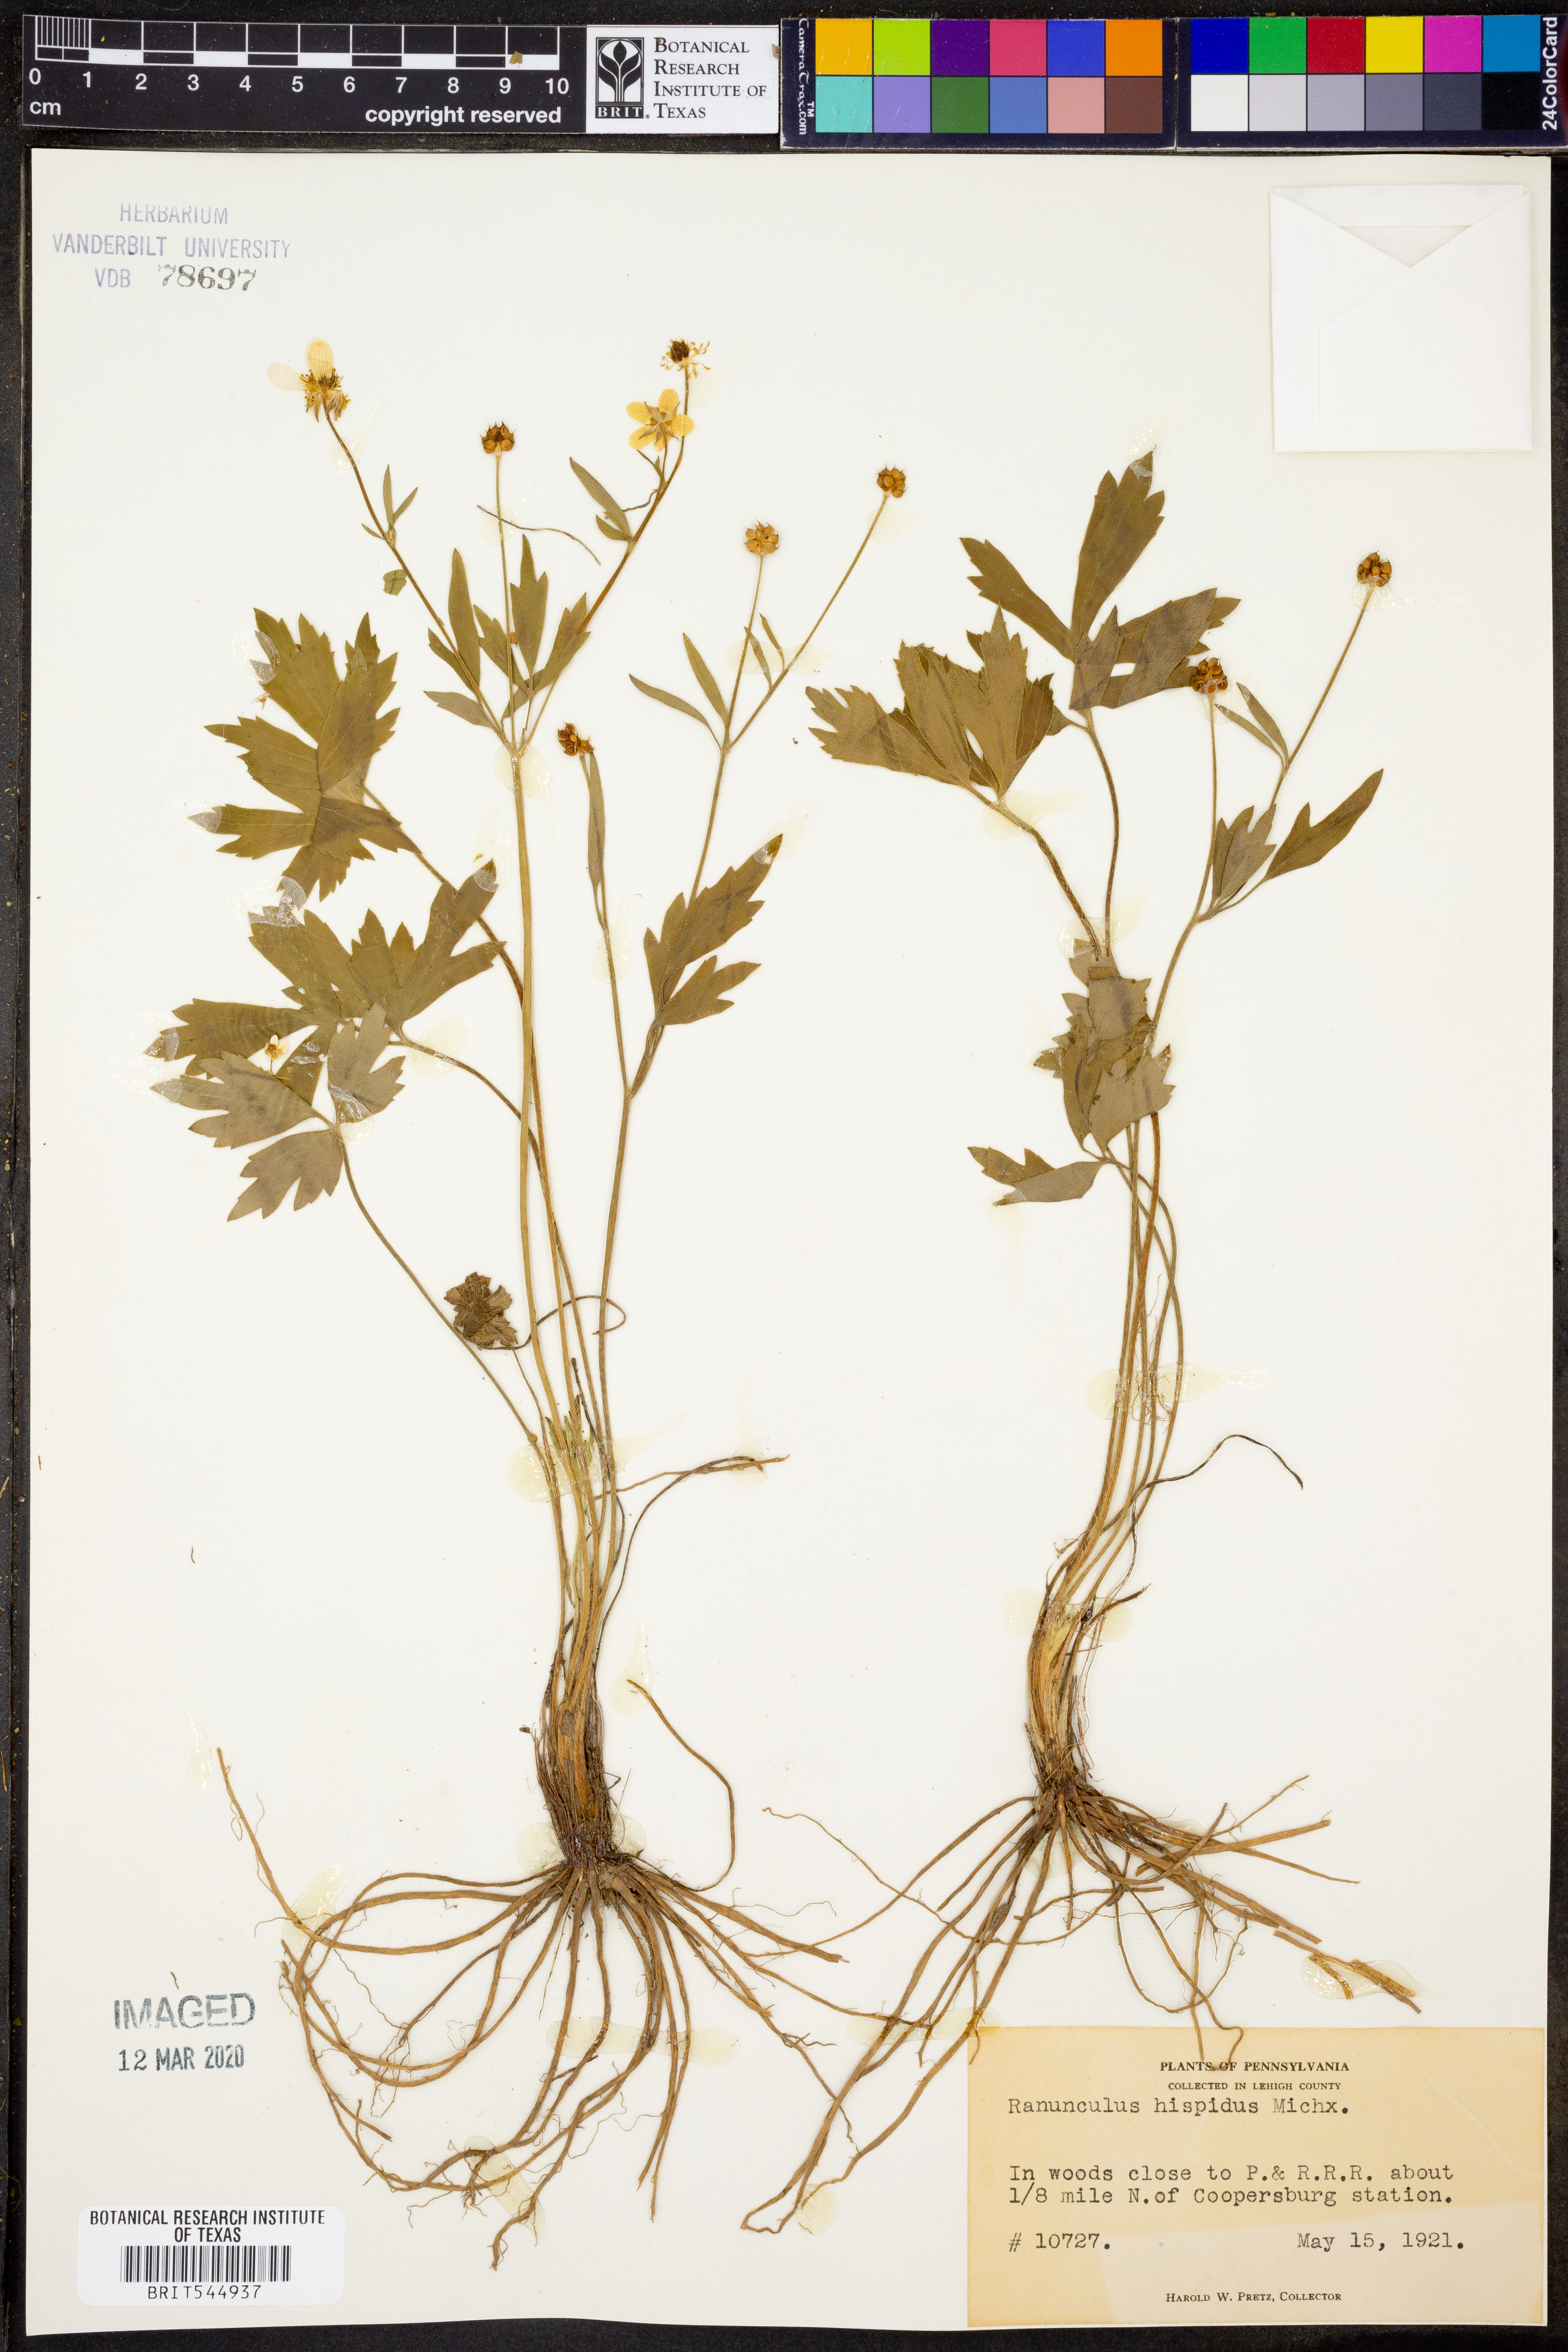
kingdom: Plantae
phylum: Tracheophyta
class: Magnoliopsida
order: Ranunculales
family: Ranunculaceae
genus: Ranunculus
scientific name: Ranunculus hispidus
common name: Bristly buttercup
